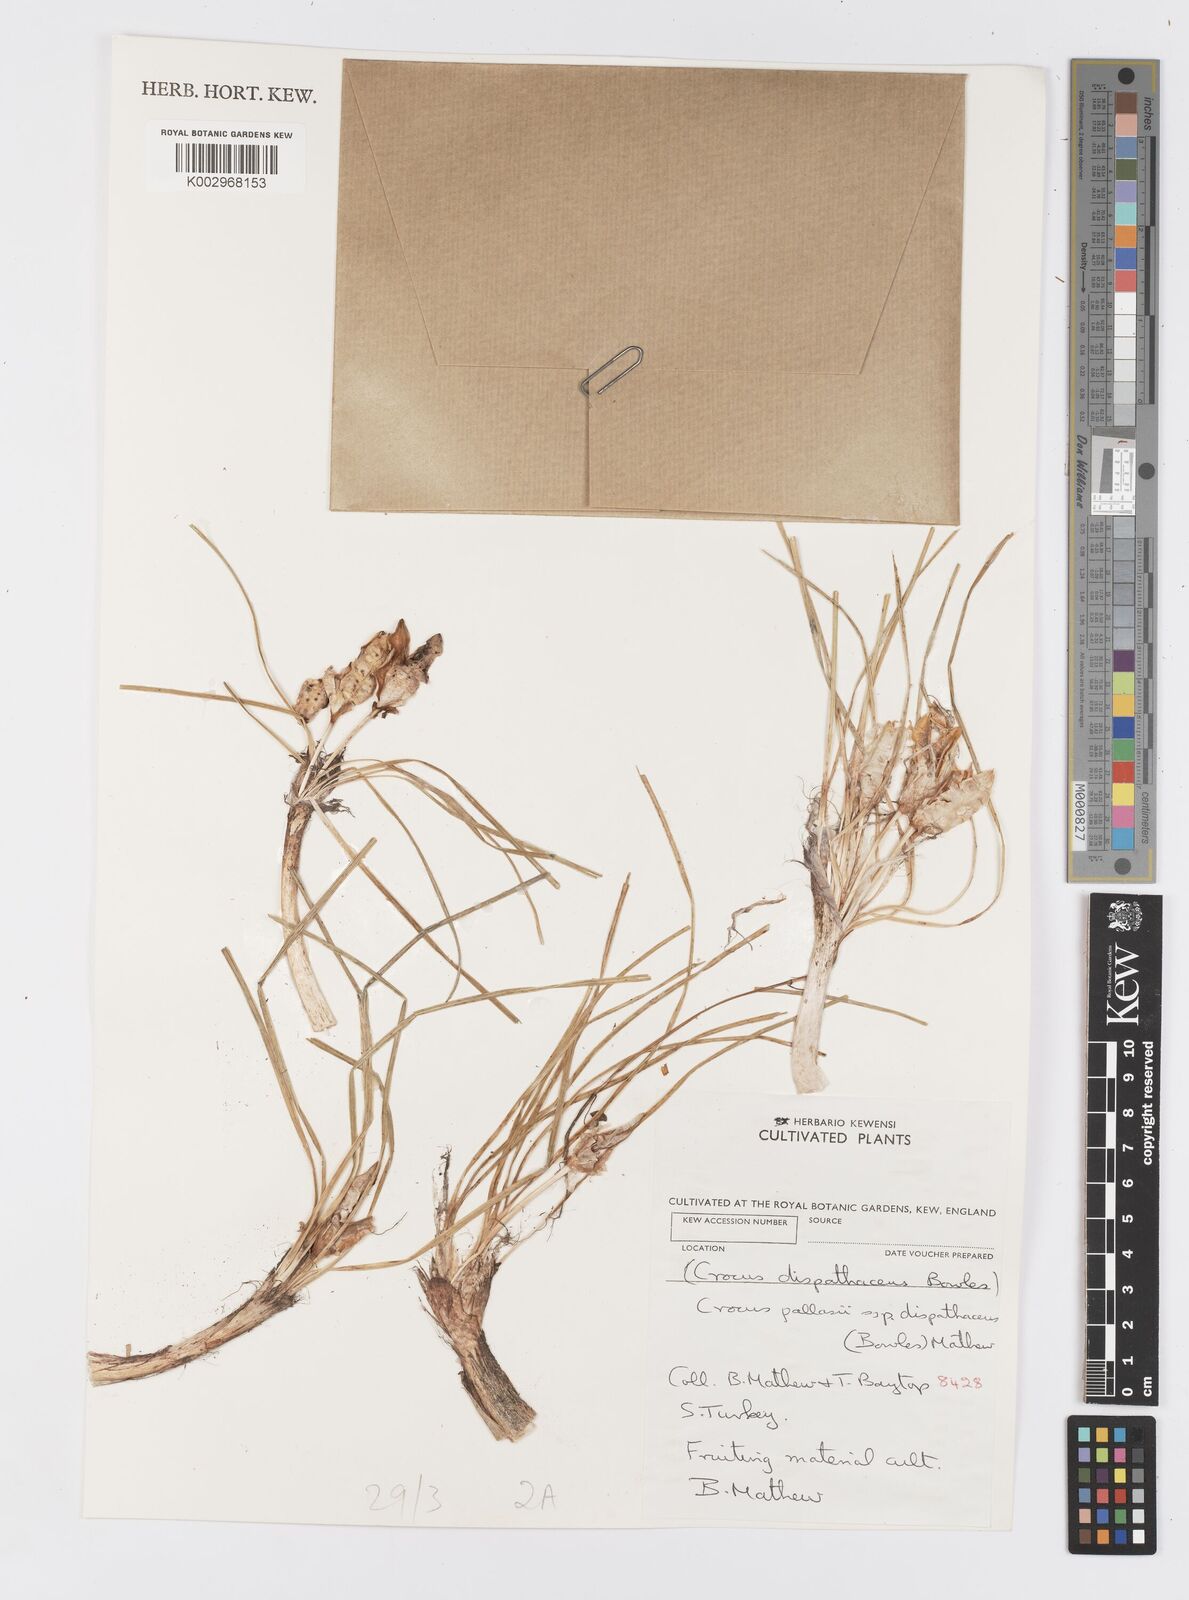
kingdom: Plantae
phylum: Tracheophyta
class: Liliopsida
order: Asparagales
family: Iridaceae
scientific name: Iridaceae
